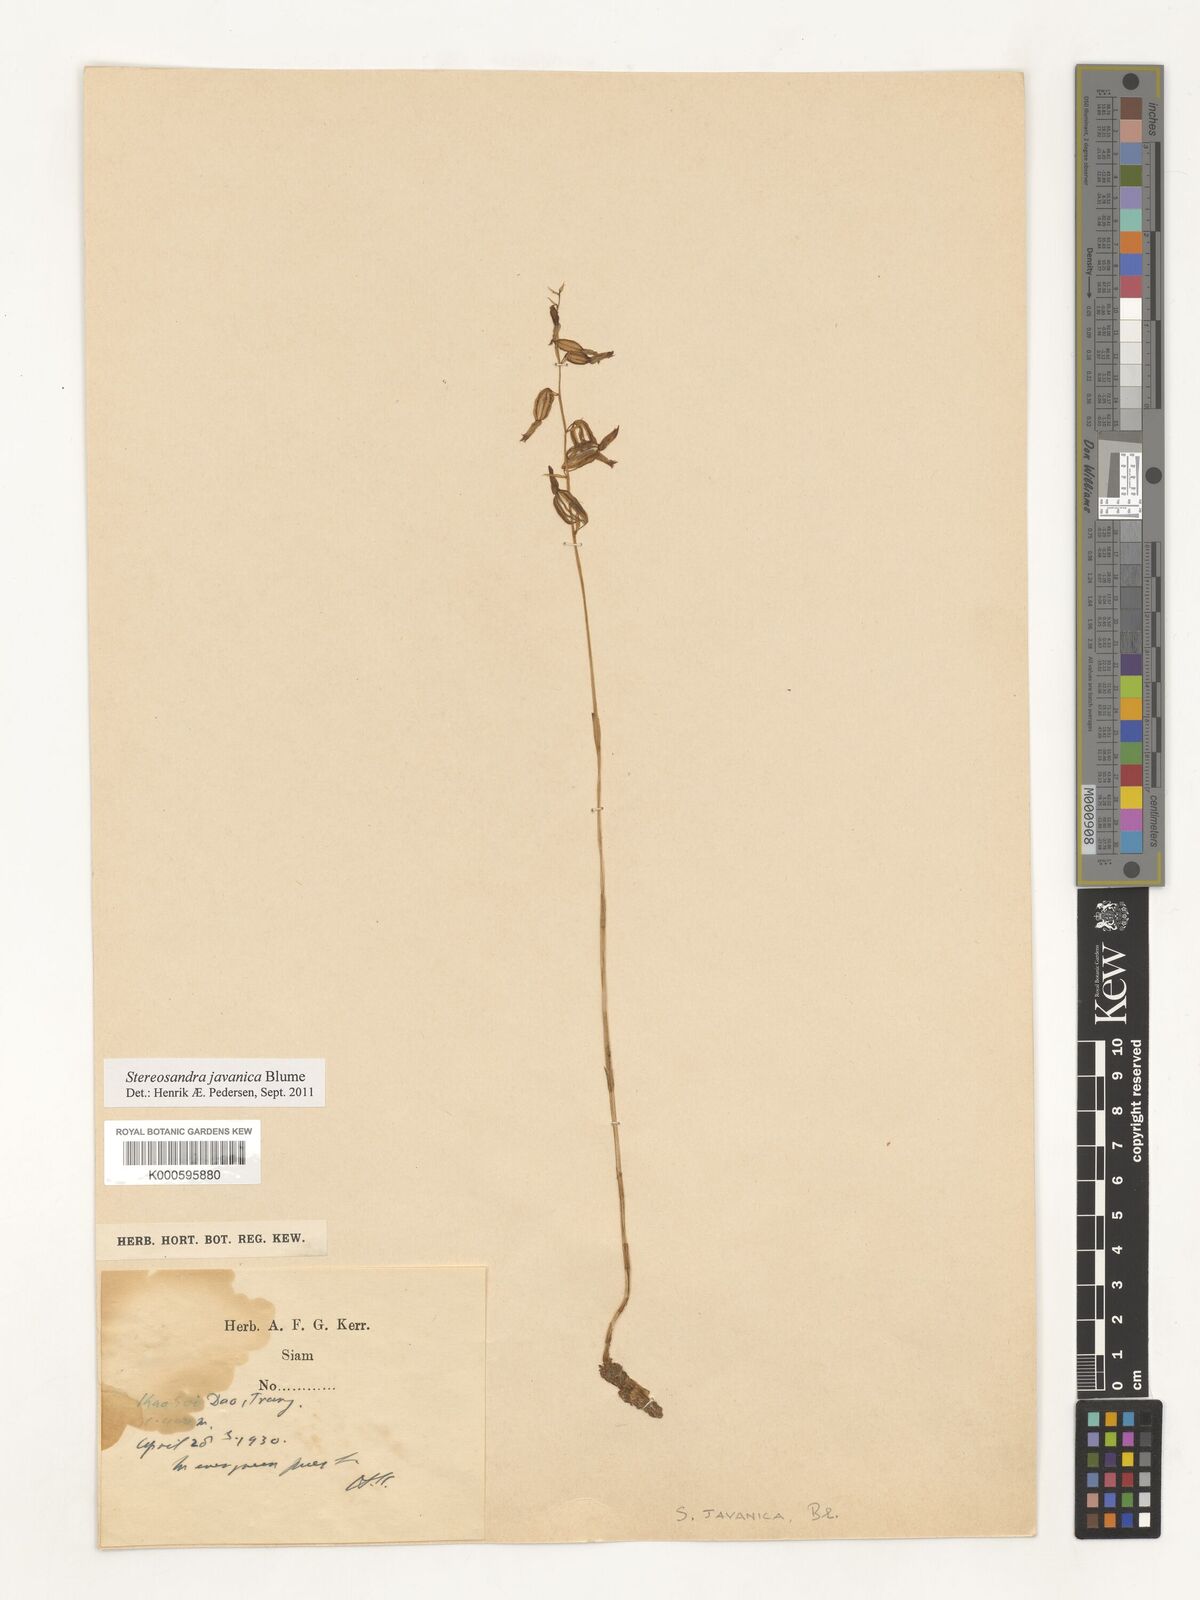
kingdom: Plantae
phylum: Tracheophyta
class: Liliopsida
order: Asparagales
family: Orchidaceae
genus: Stereosandra
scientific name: Stereosandra javanica
